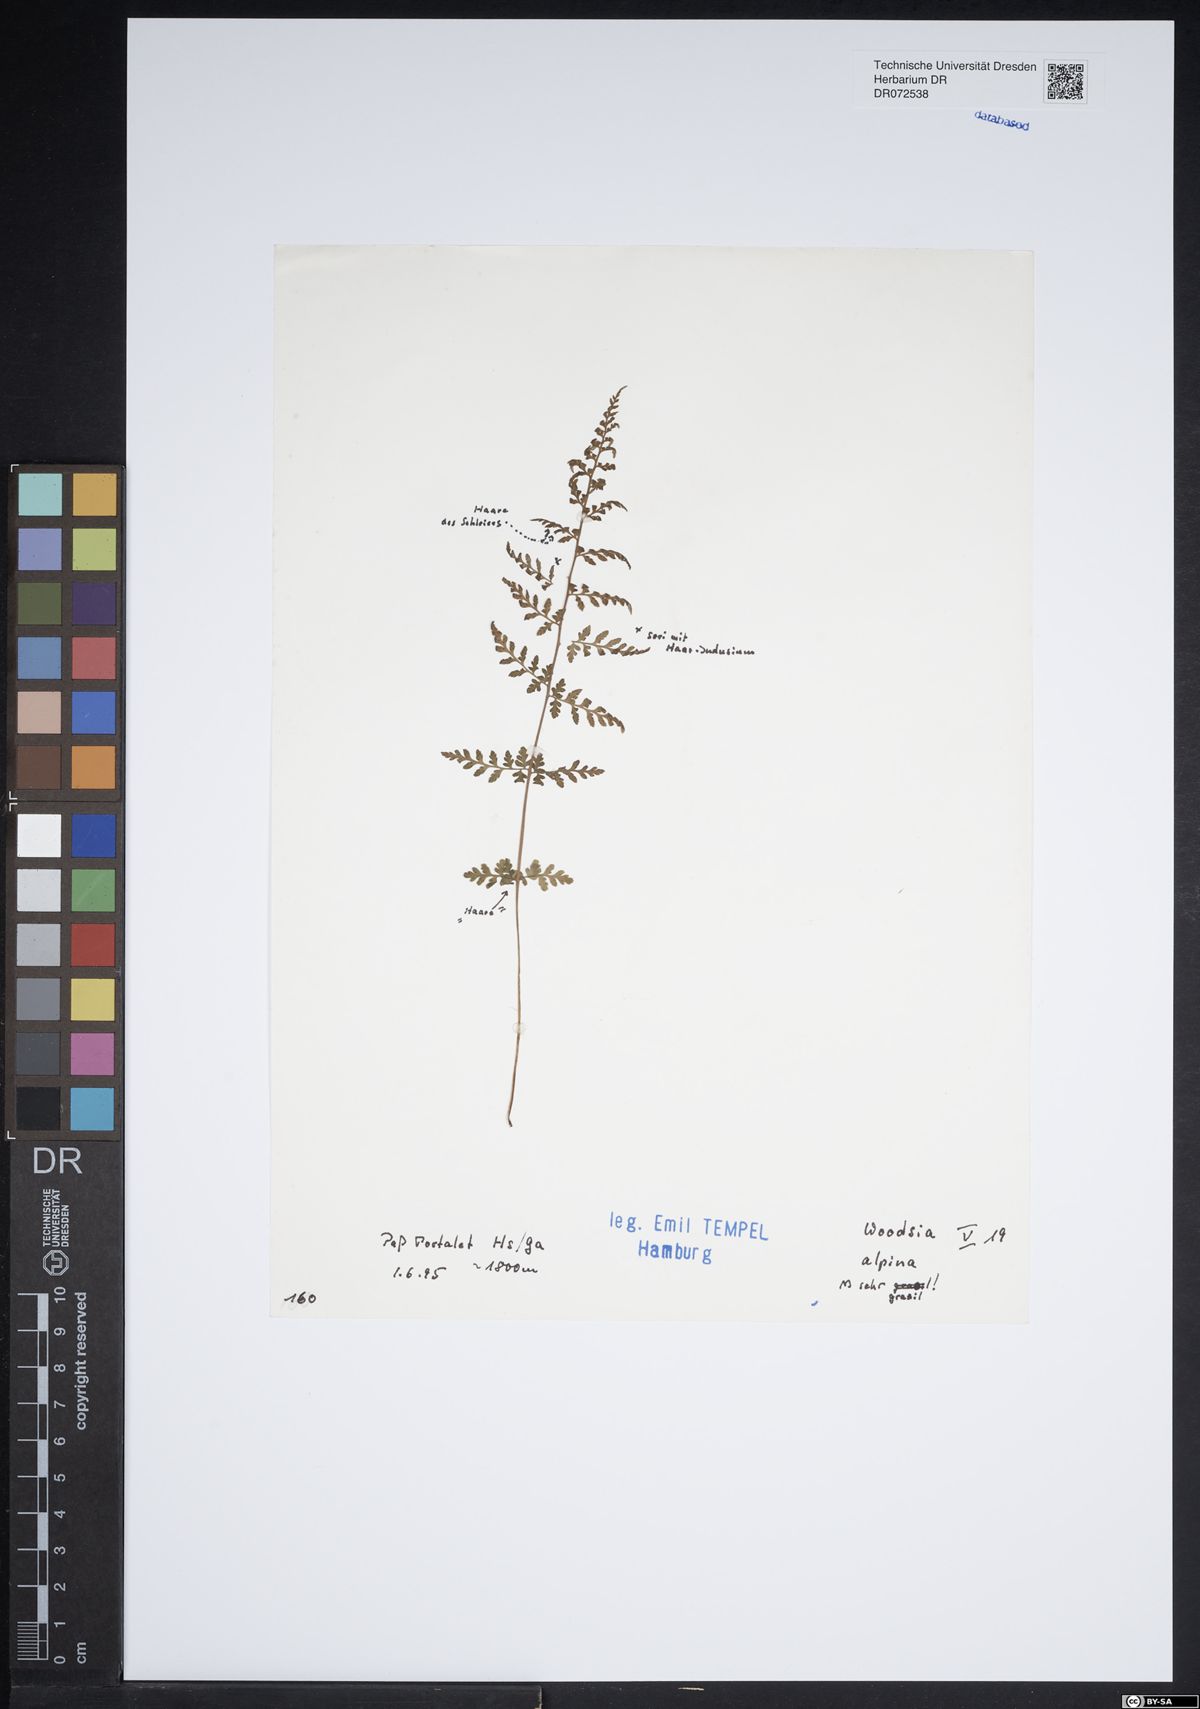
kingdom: Plantae
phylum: Tracheophyta
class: Polypodiopsida
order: Polypodiales
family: Woodsiaceae
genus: Woodsia
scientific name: Woodsia alpina
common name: Alpine woodsia
